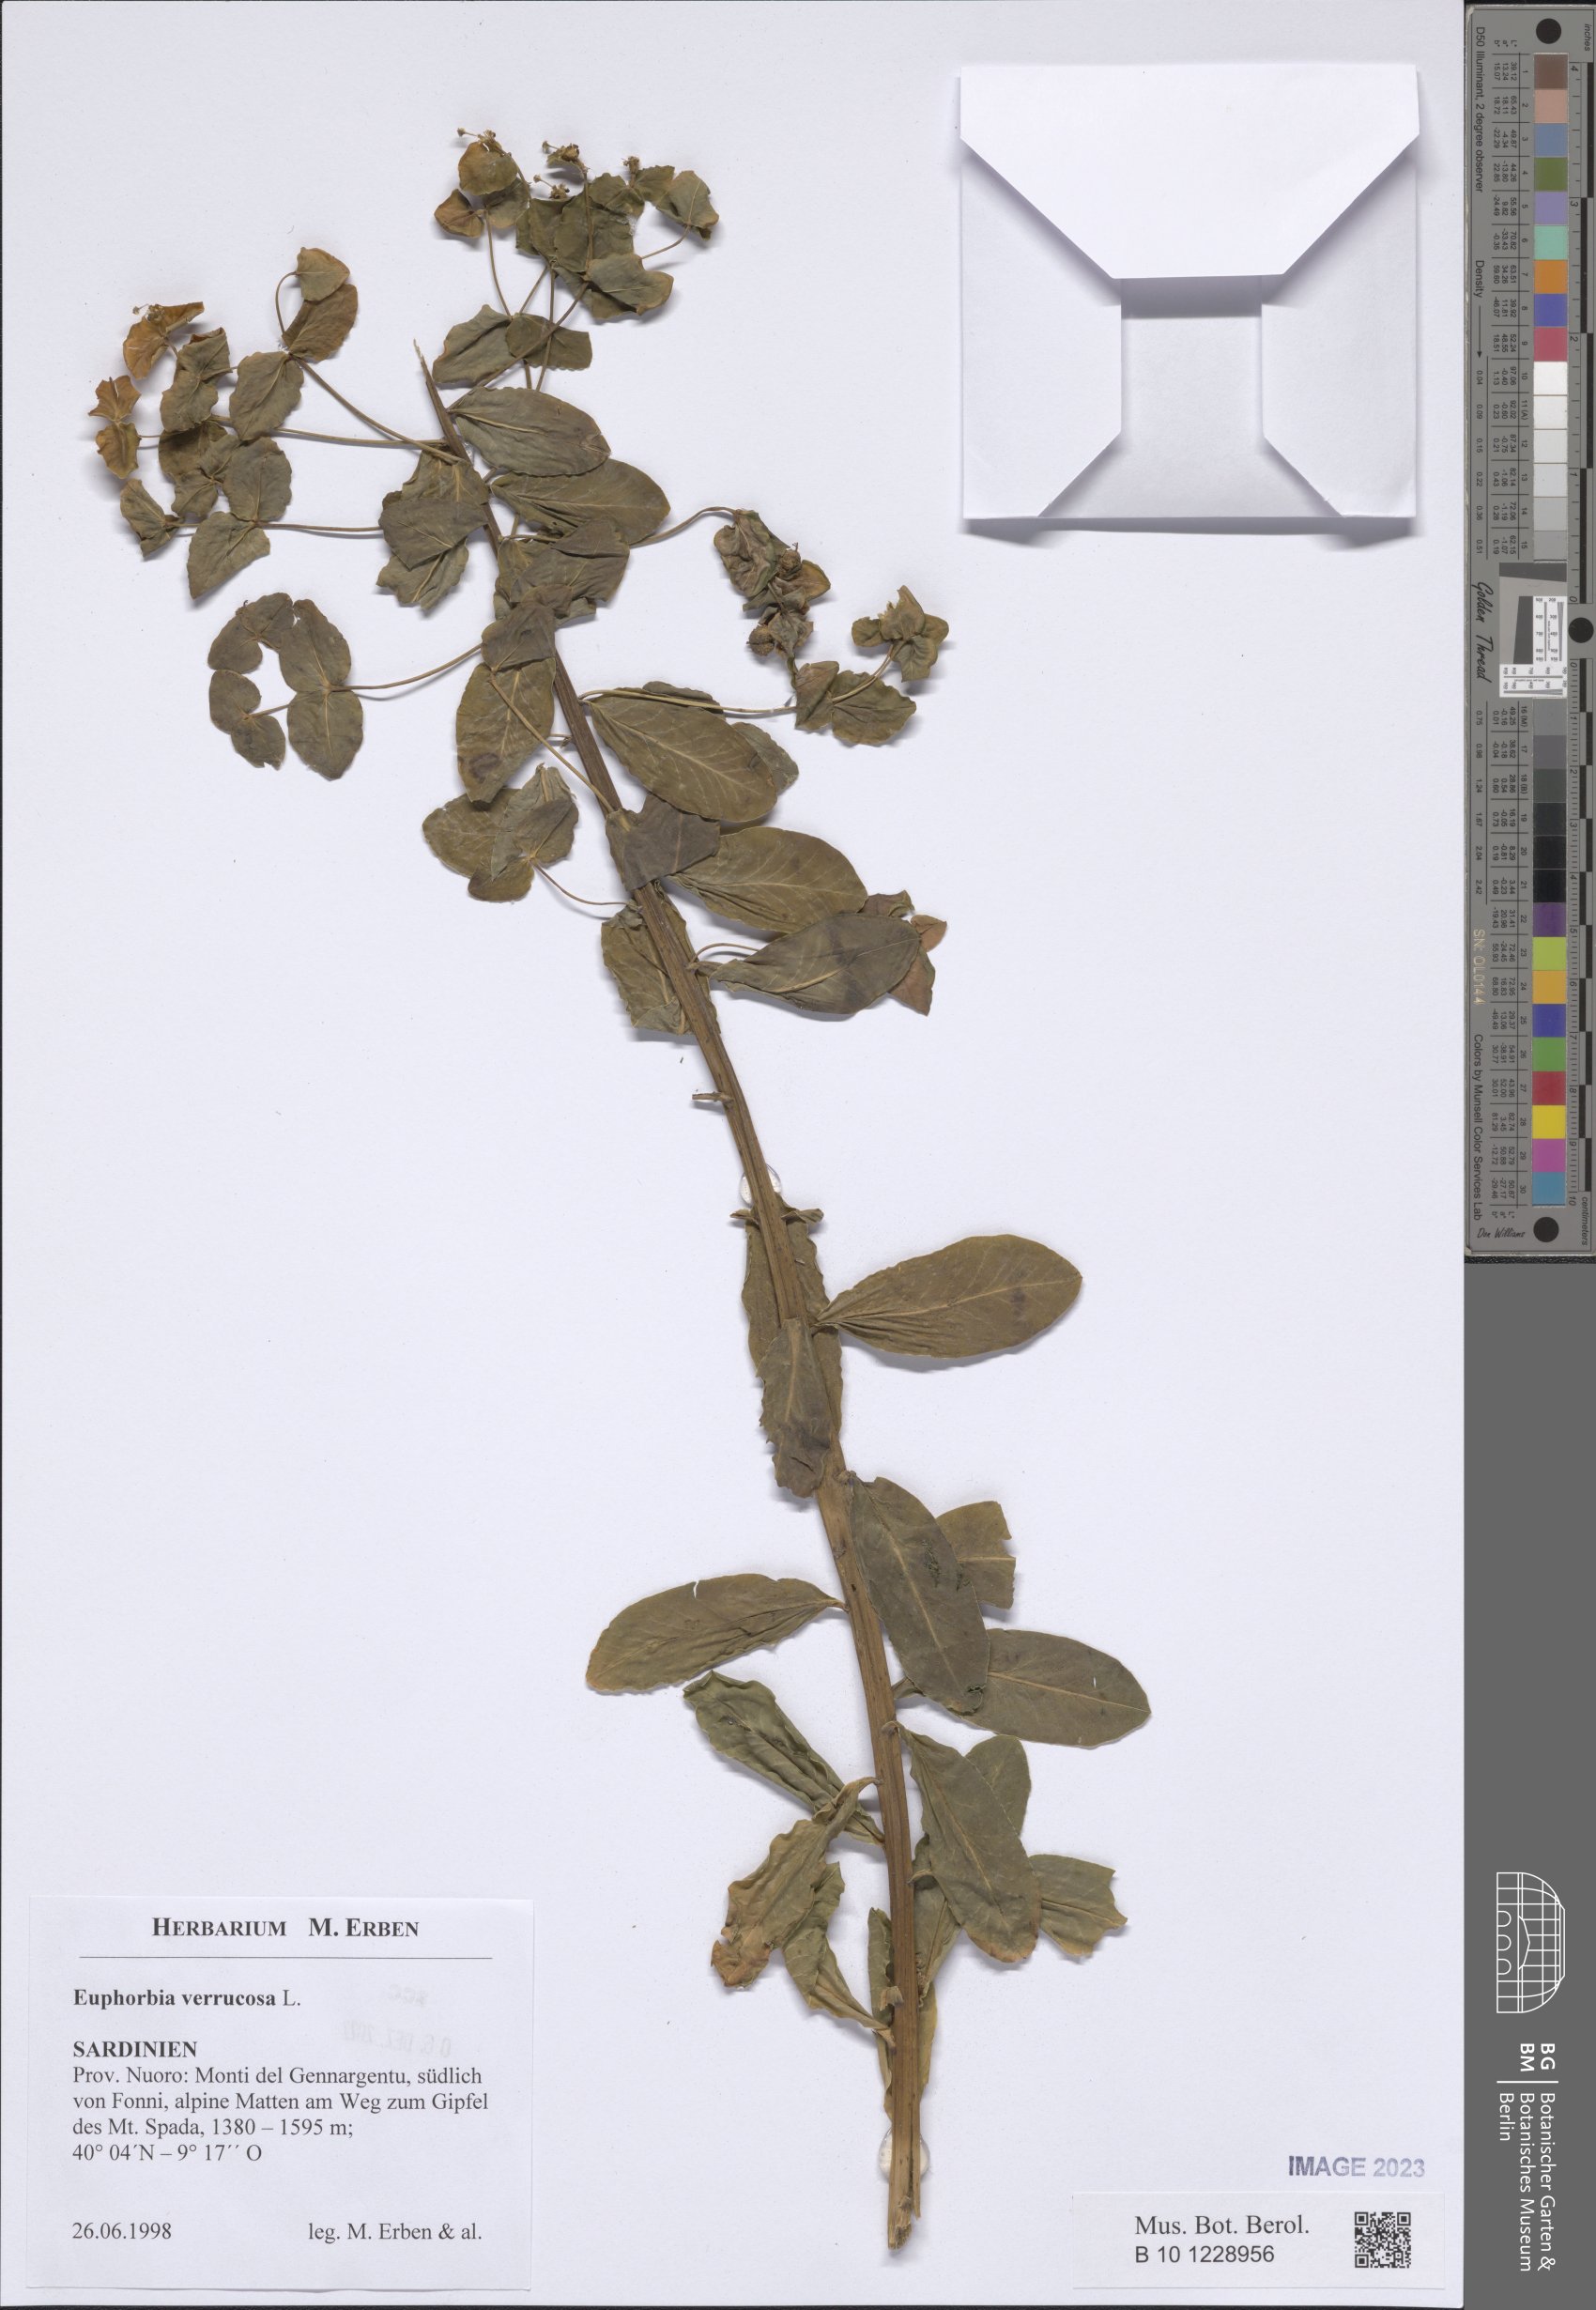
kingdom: Plantae
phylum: Tracheophyta
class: Magnoliopsida
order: Malpighiales
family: Euphorbiaceae
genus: Euphorbia
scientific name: Euphorbia verrucosa
